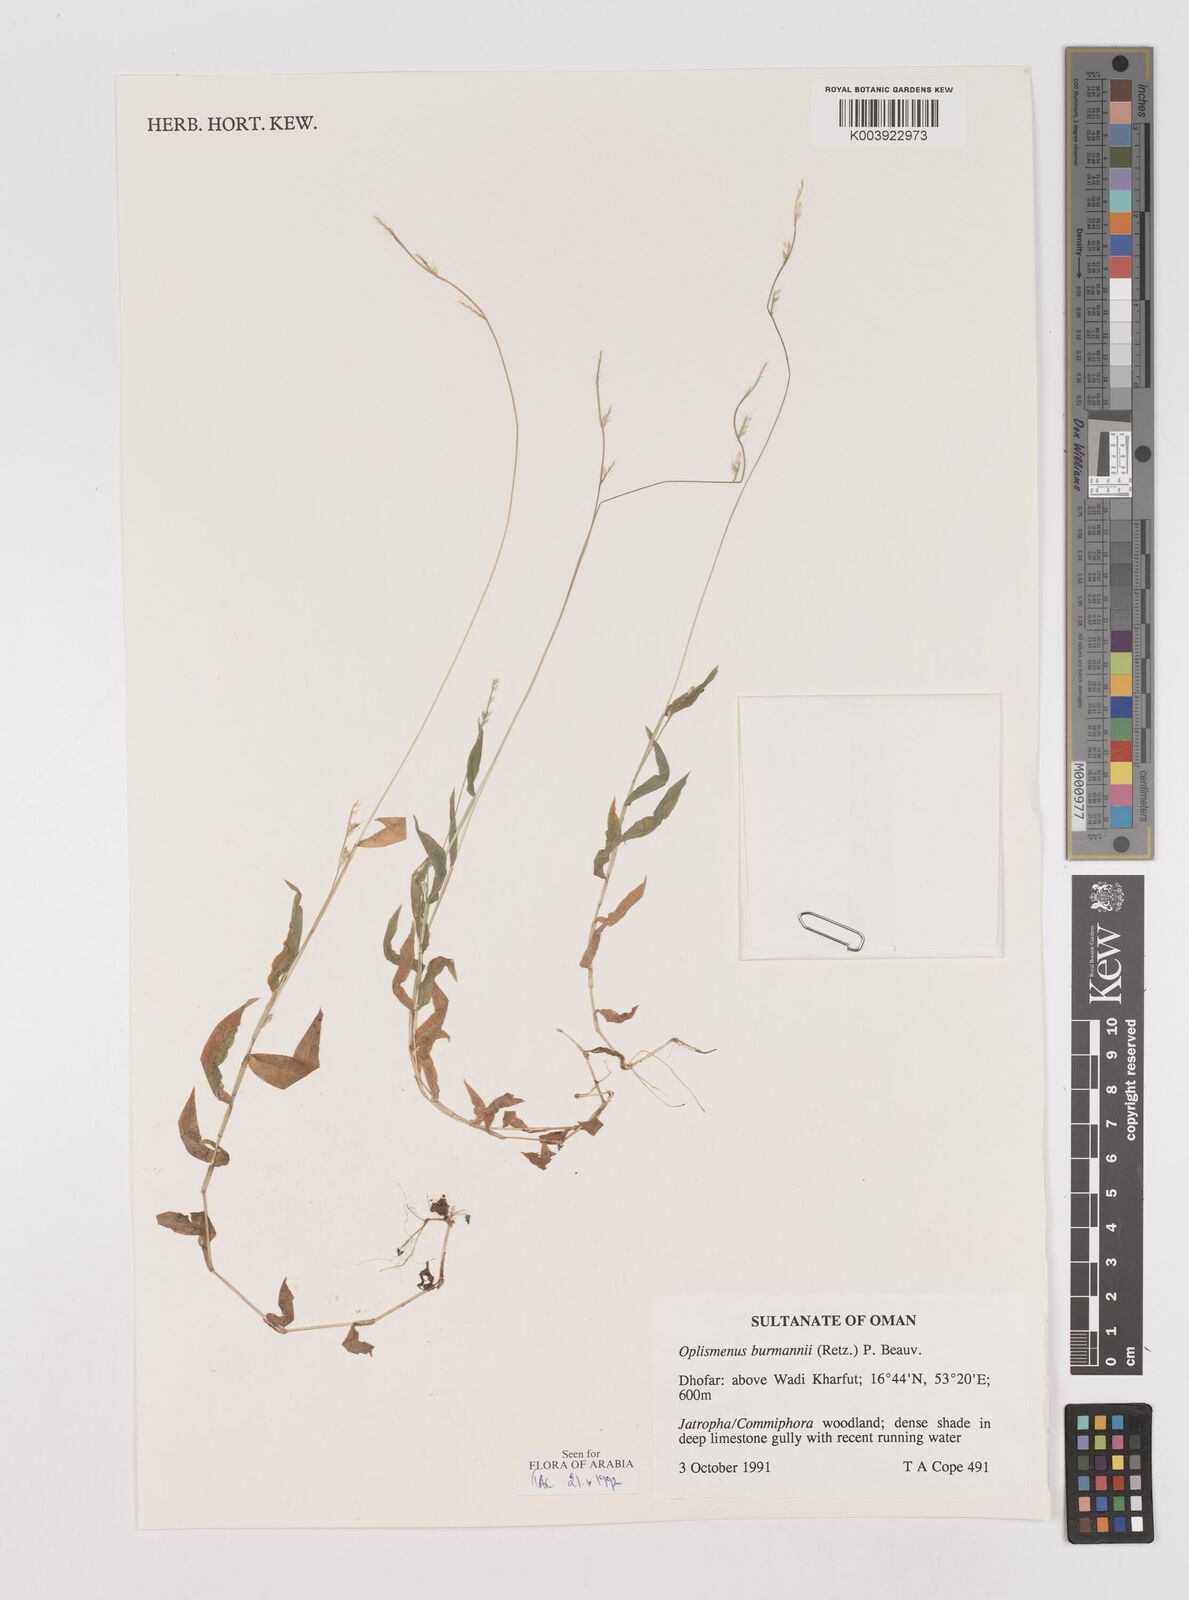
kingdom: Plantae
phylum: Tracheophyta
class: Liliopsida
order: Poales
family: Poaceae
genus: Oplismenus
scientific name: Oplismenus burmanni
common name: Burmann's basketgrass
